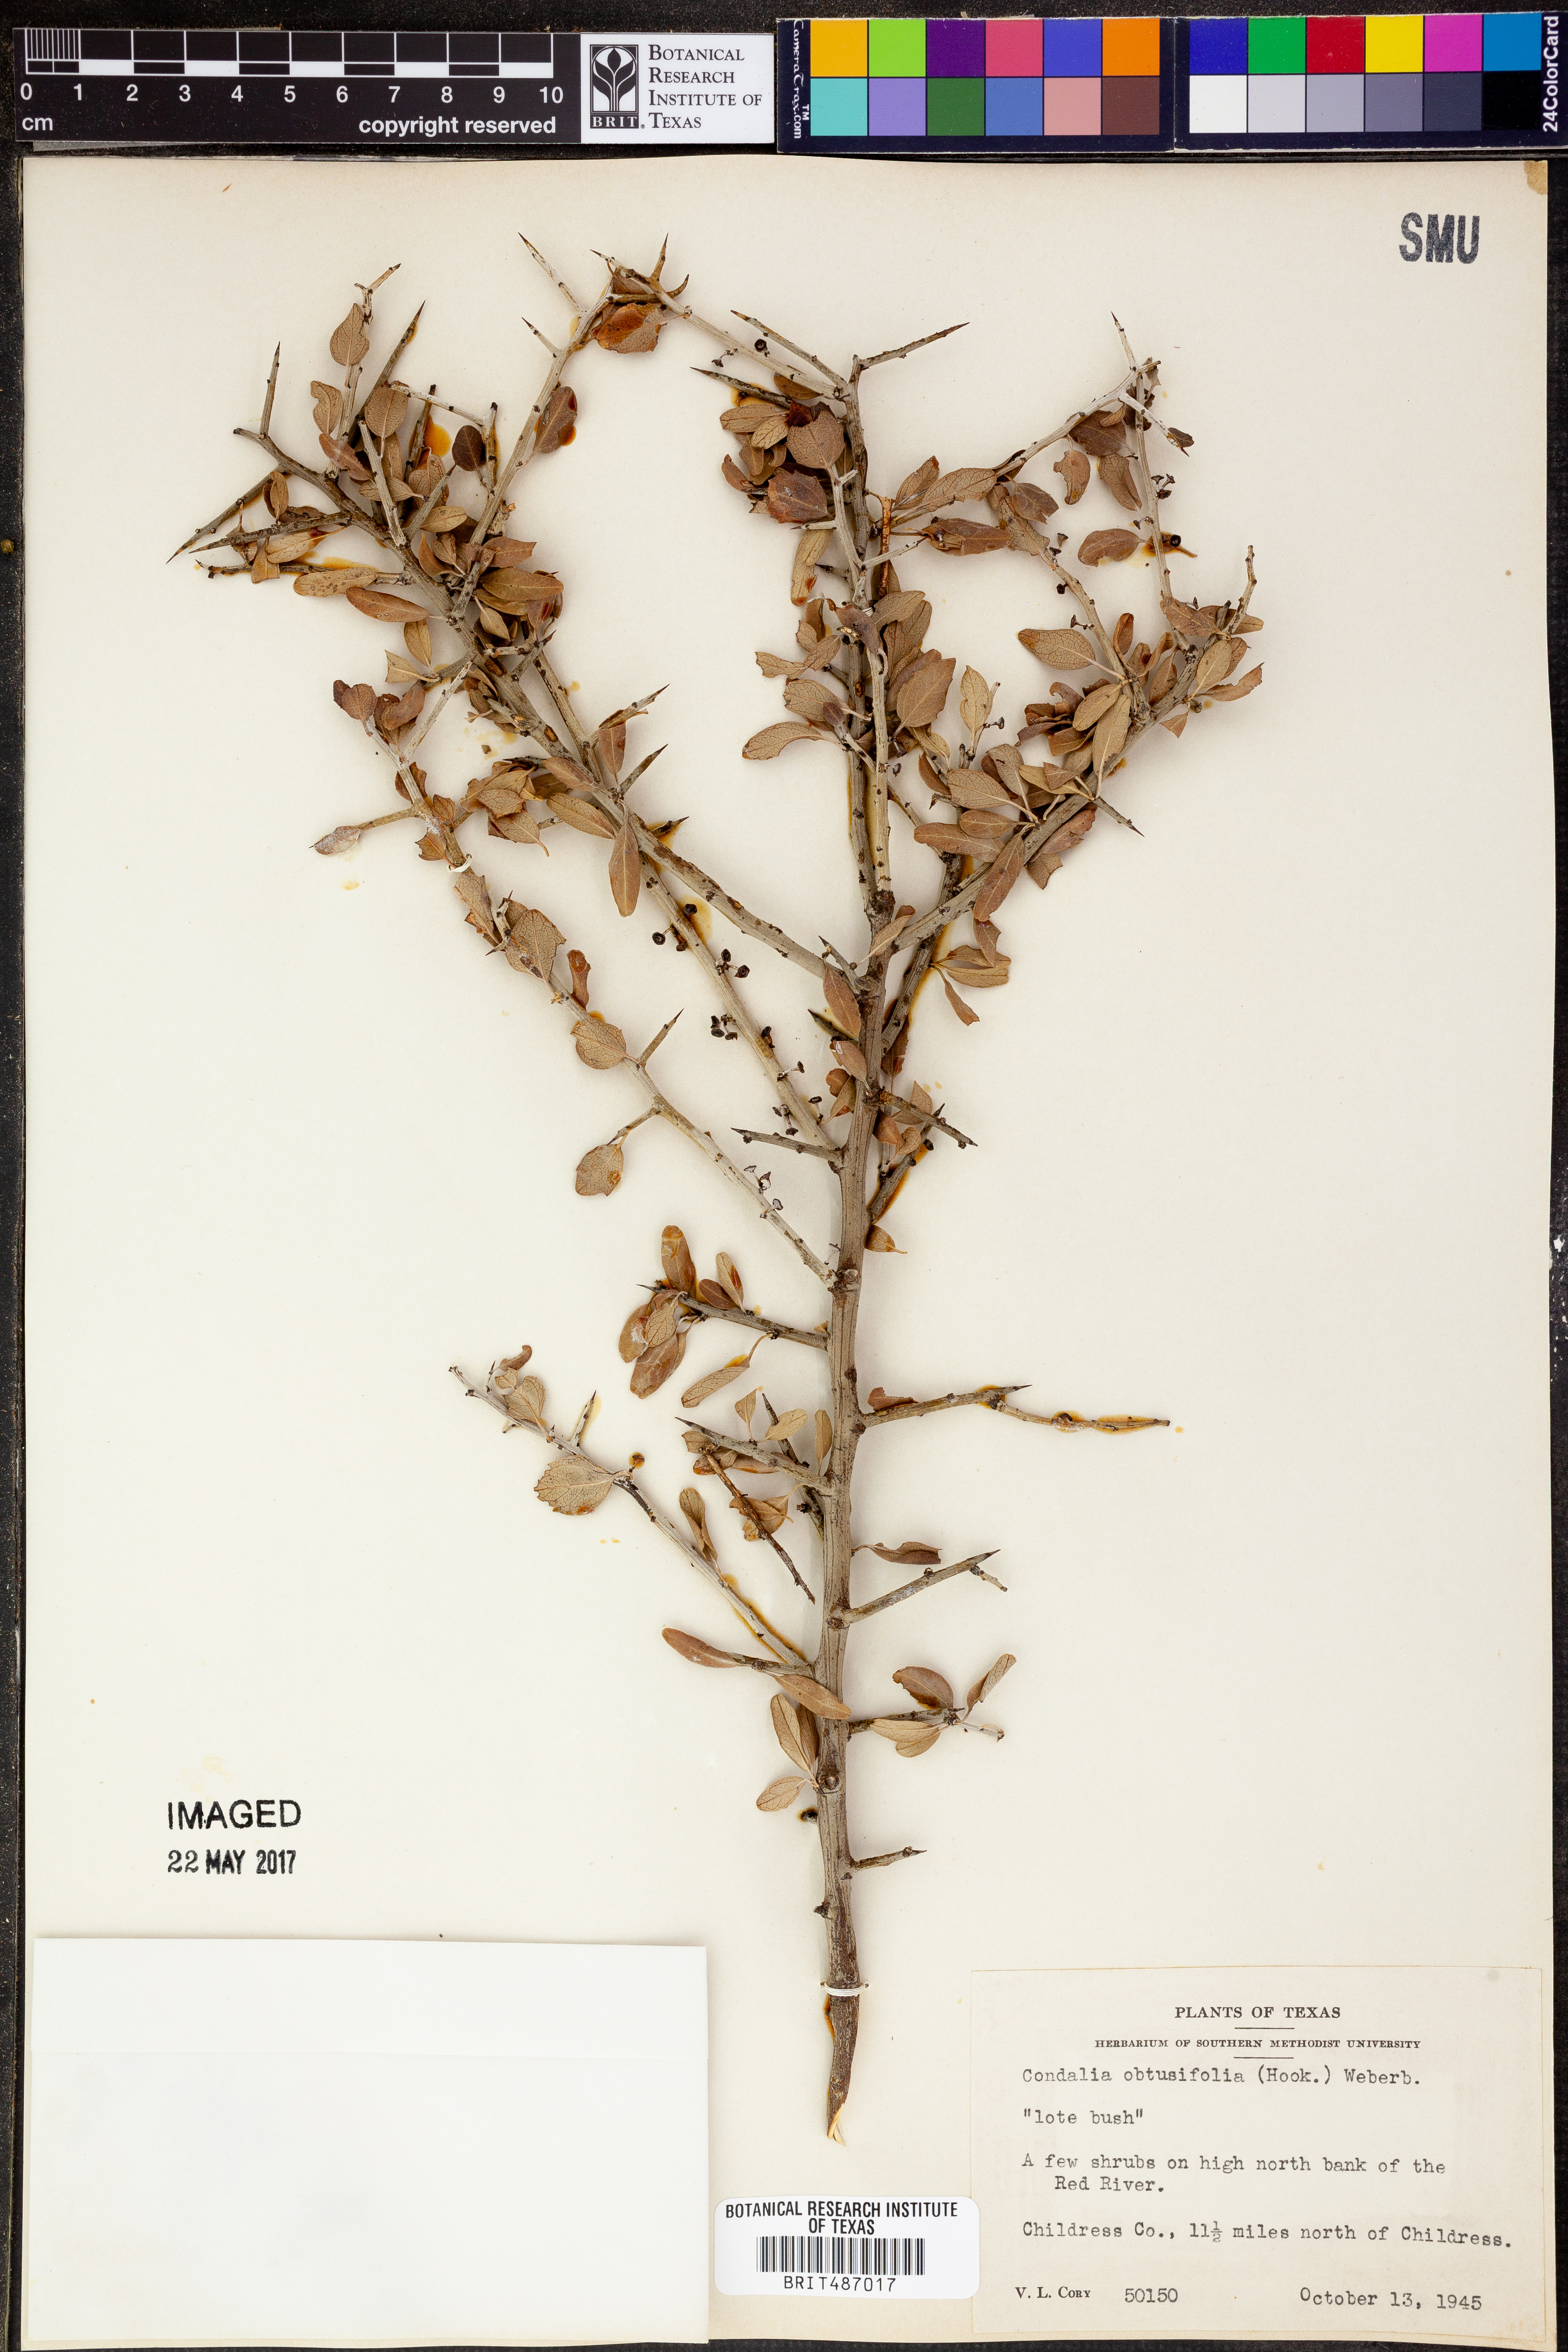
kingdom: Plantae
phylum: Tracheophyta
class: Magnoliopsida
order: Rosales
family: Rhamnaceae
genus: Sarcomphalus
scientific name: Sarcomphalus obtusifolius
